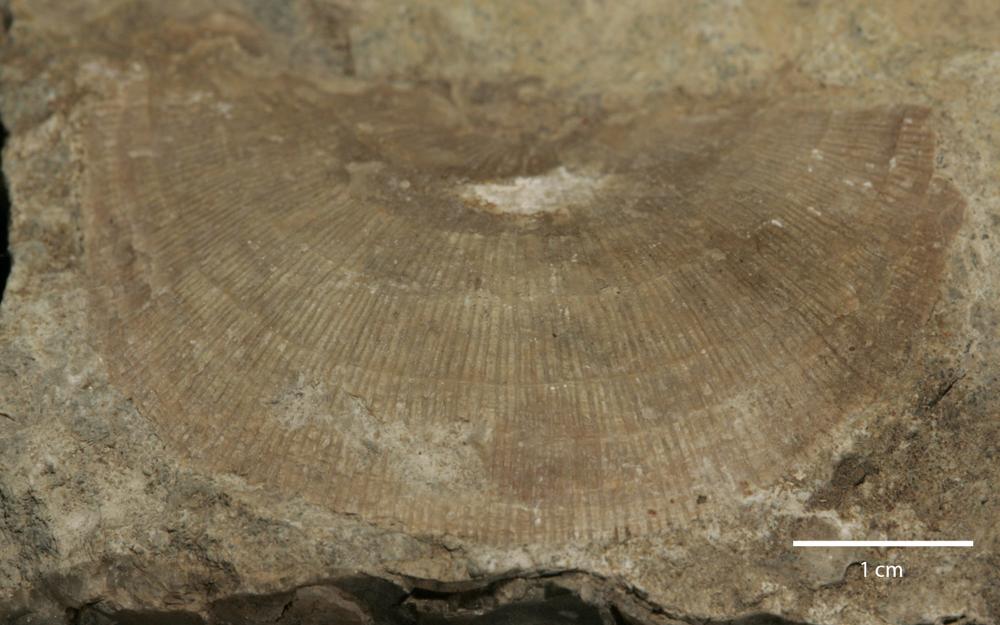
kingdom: Animalia
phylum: Brachiopoda
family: Gonambonitidae
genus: Gonambonites
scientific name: Gonambonites plana
